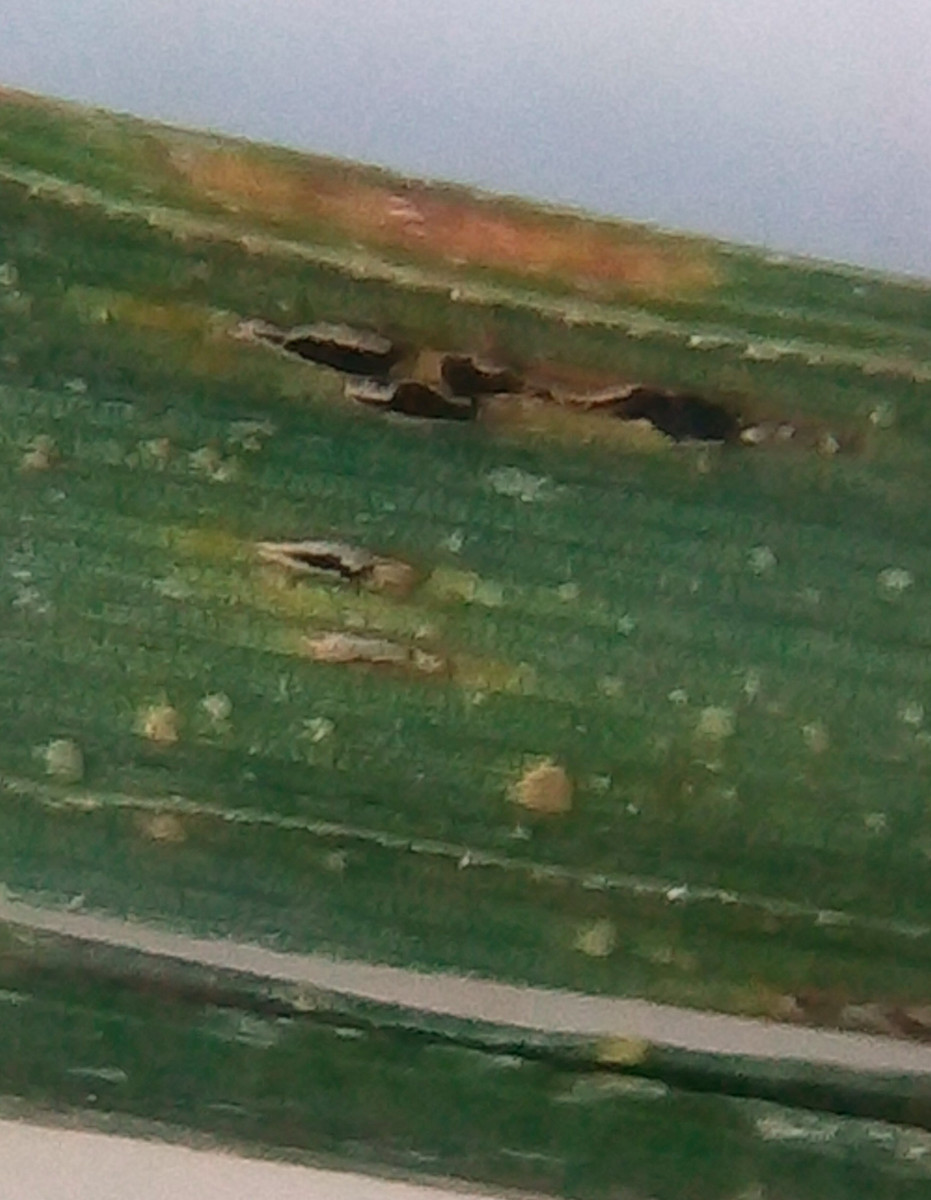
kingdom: Fungi
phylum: Basidiomycota
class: Pucciniomycetes
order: Pucciniales
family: Pucciniaceae
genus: Puccinia
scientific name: Puccinia urticata
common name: nældegalle-tvecellerust
